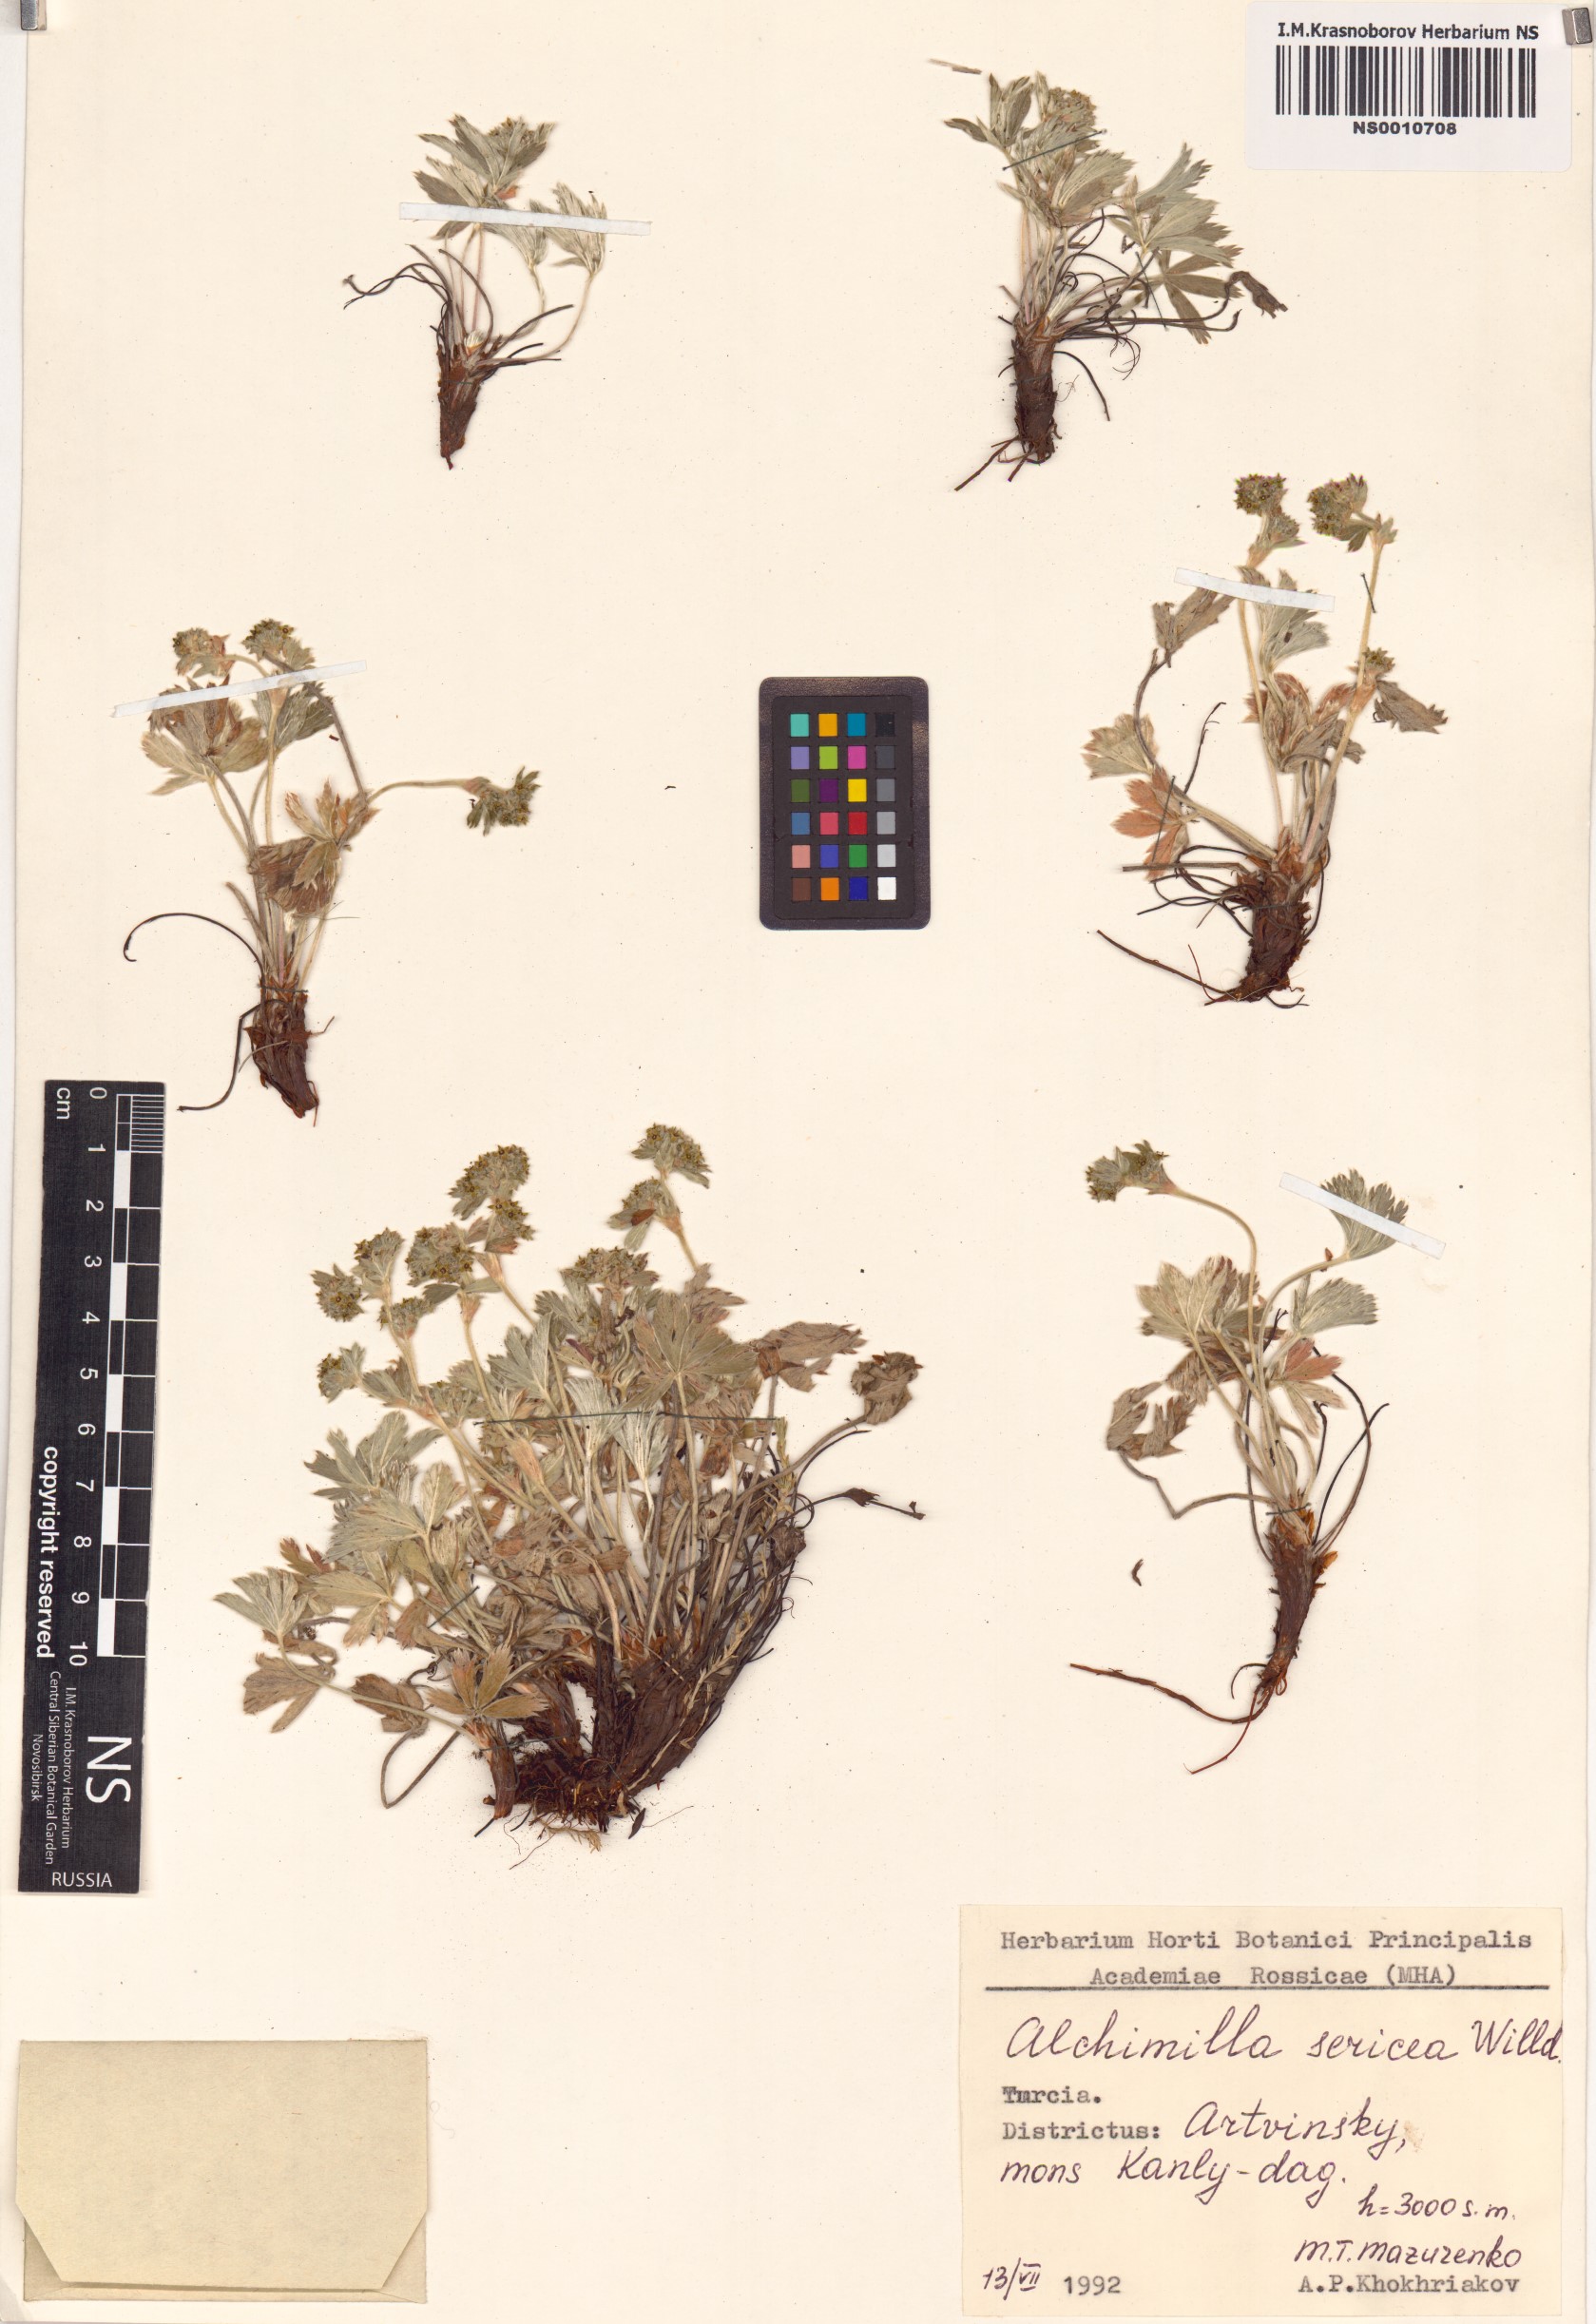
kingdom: Plantae
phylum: Tracheophyta
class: Magnoliopsida
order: Rosales
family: Rosaceae
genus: Alchemilla
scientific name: Alchemilla sericea
